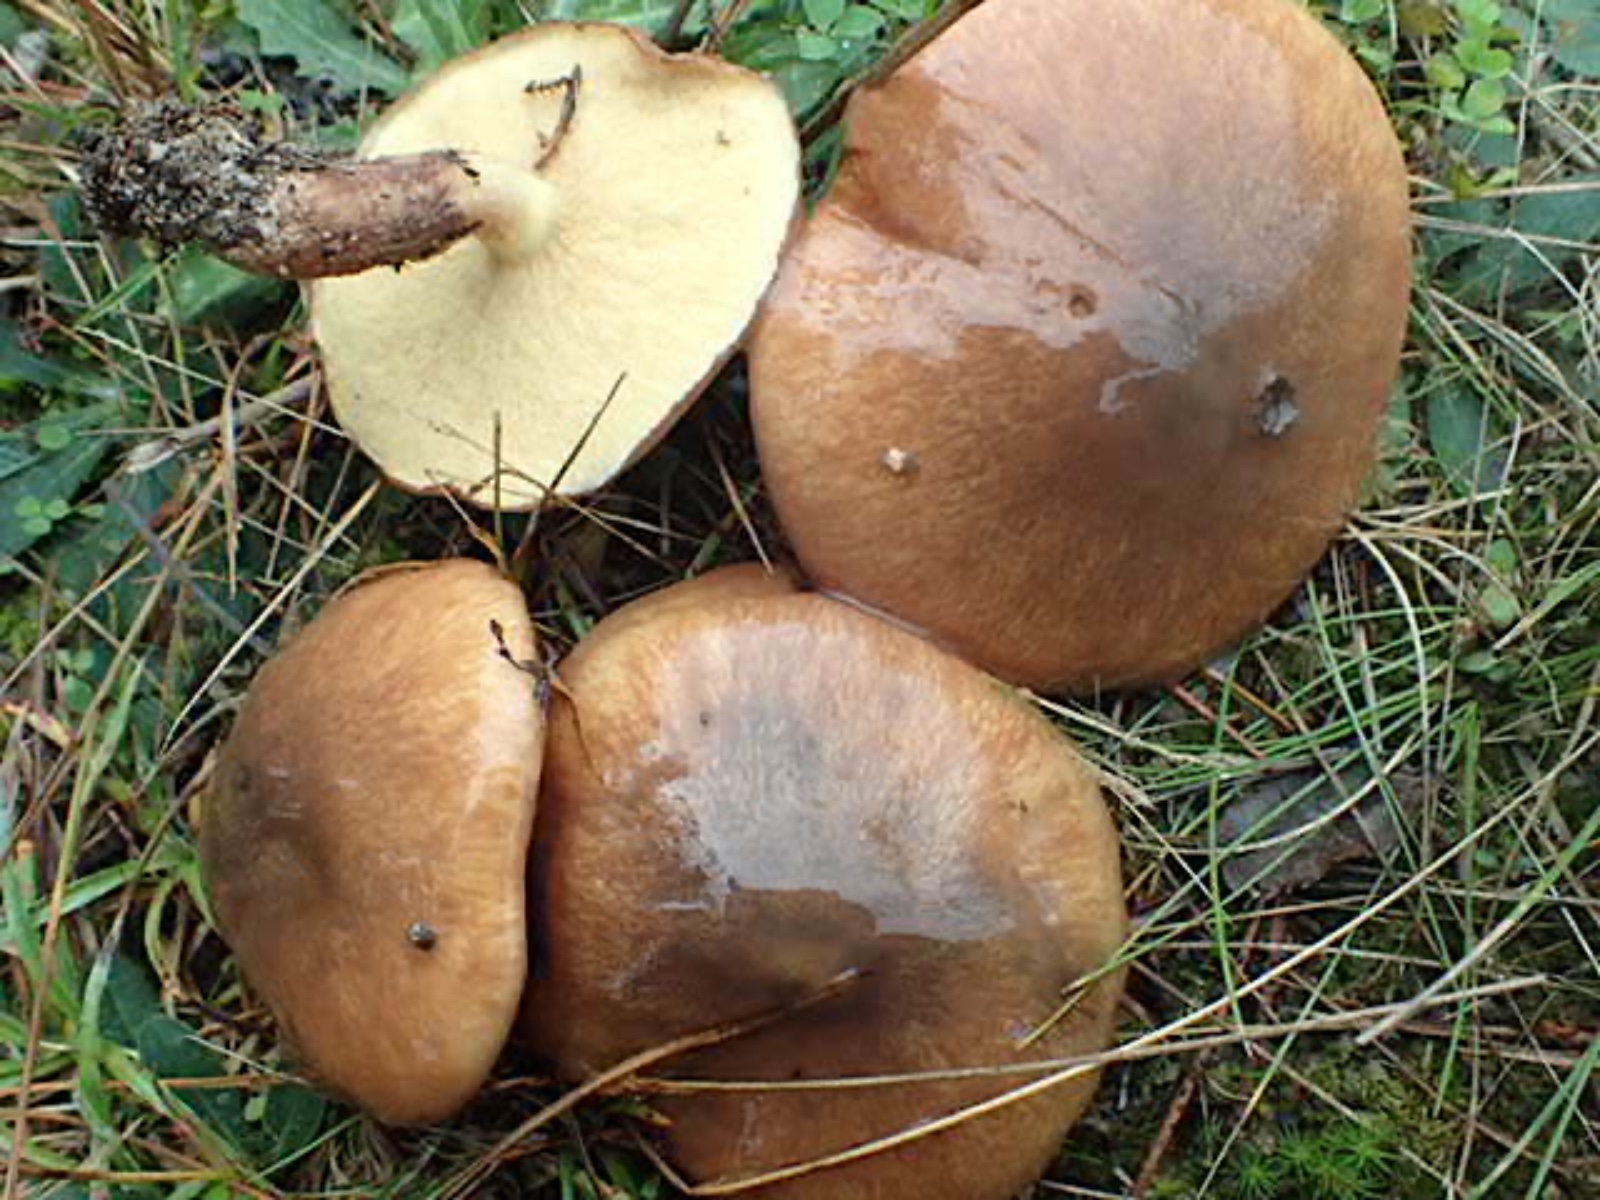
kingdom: Fungi
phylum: Basidiomycota
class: Agaricomycetes
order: Boletales
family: Suillaceae
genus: Suillus
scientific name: Suillus luteus
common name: brungul slimrørhat
